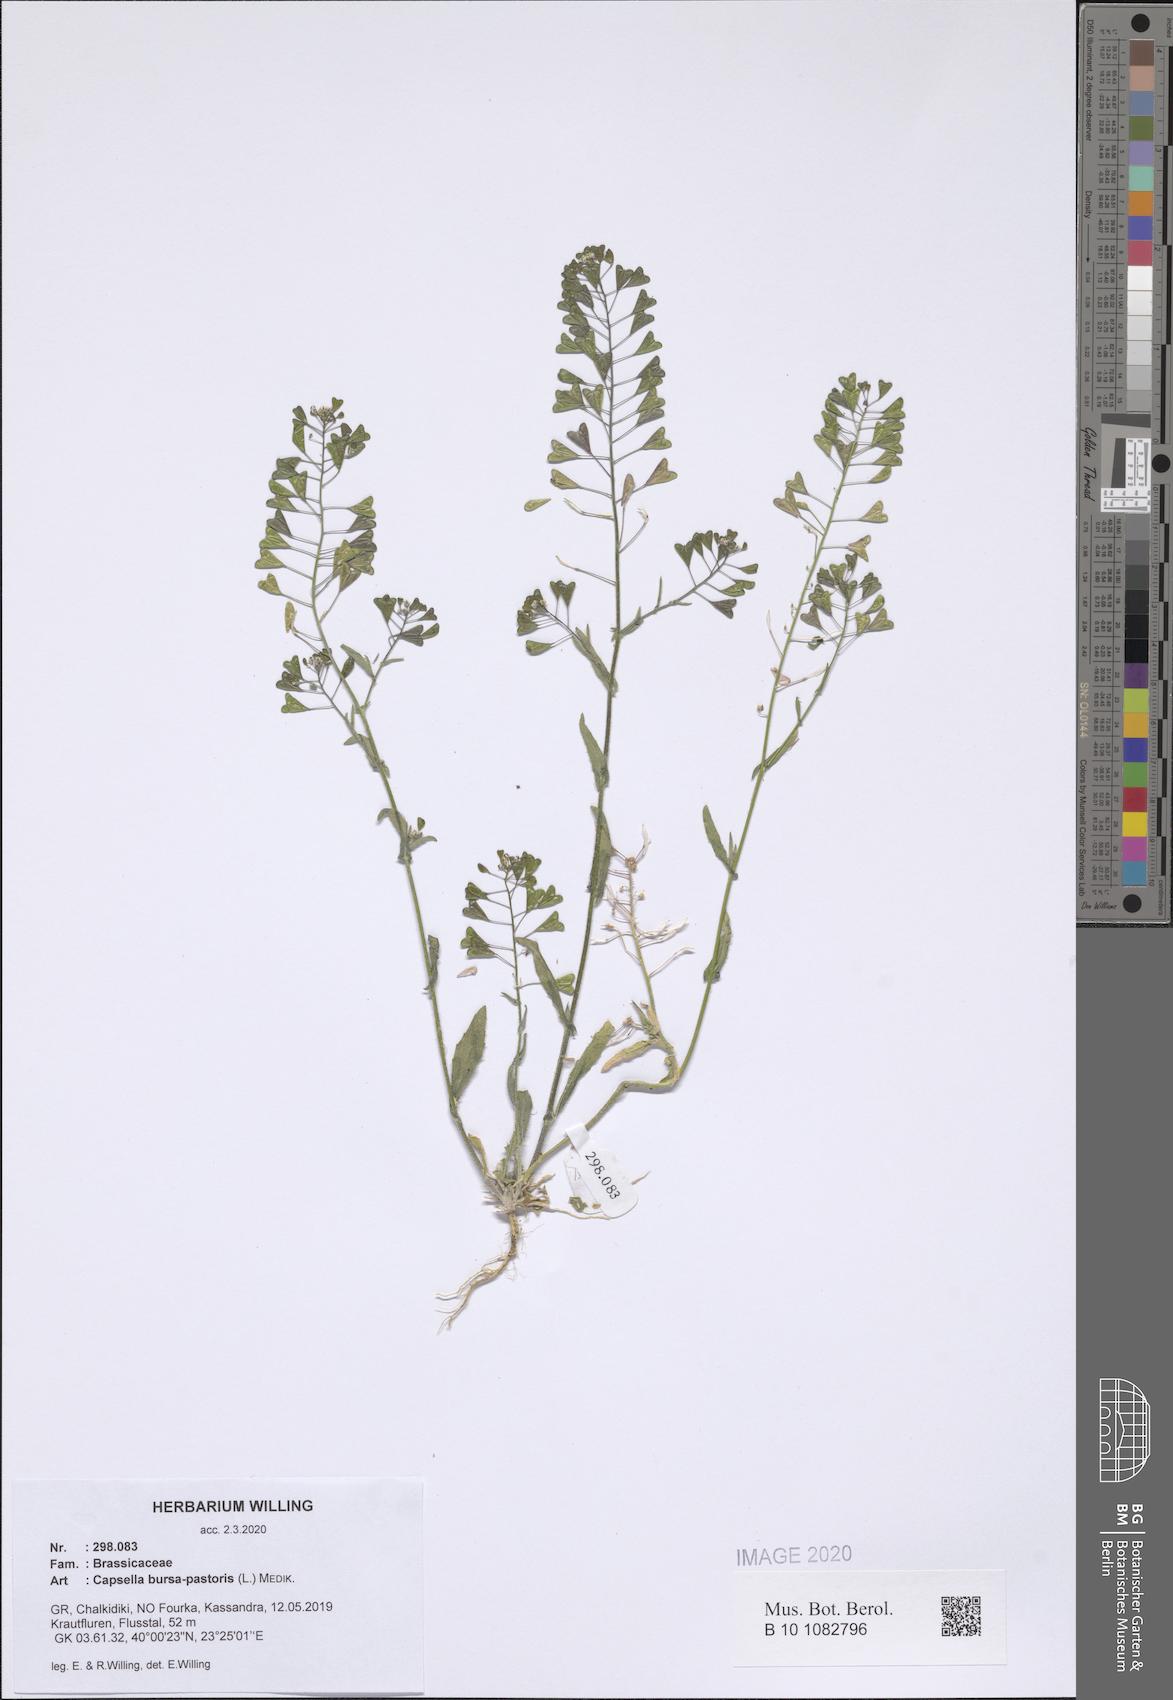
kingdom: Plantae
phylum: Tracheophyta
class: Magnoliopsida
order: Brassicales
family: Brassicaceae
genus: Capsella
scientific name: Capsella bursa-pastoris
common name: Shepherd's purse
